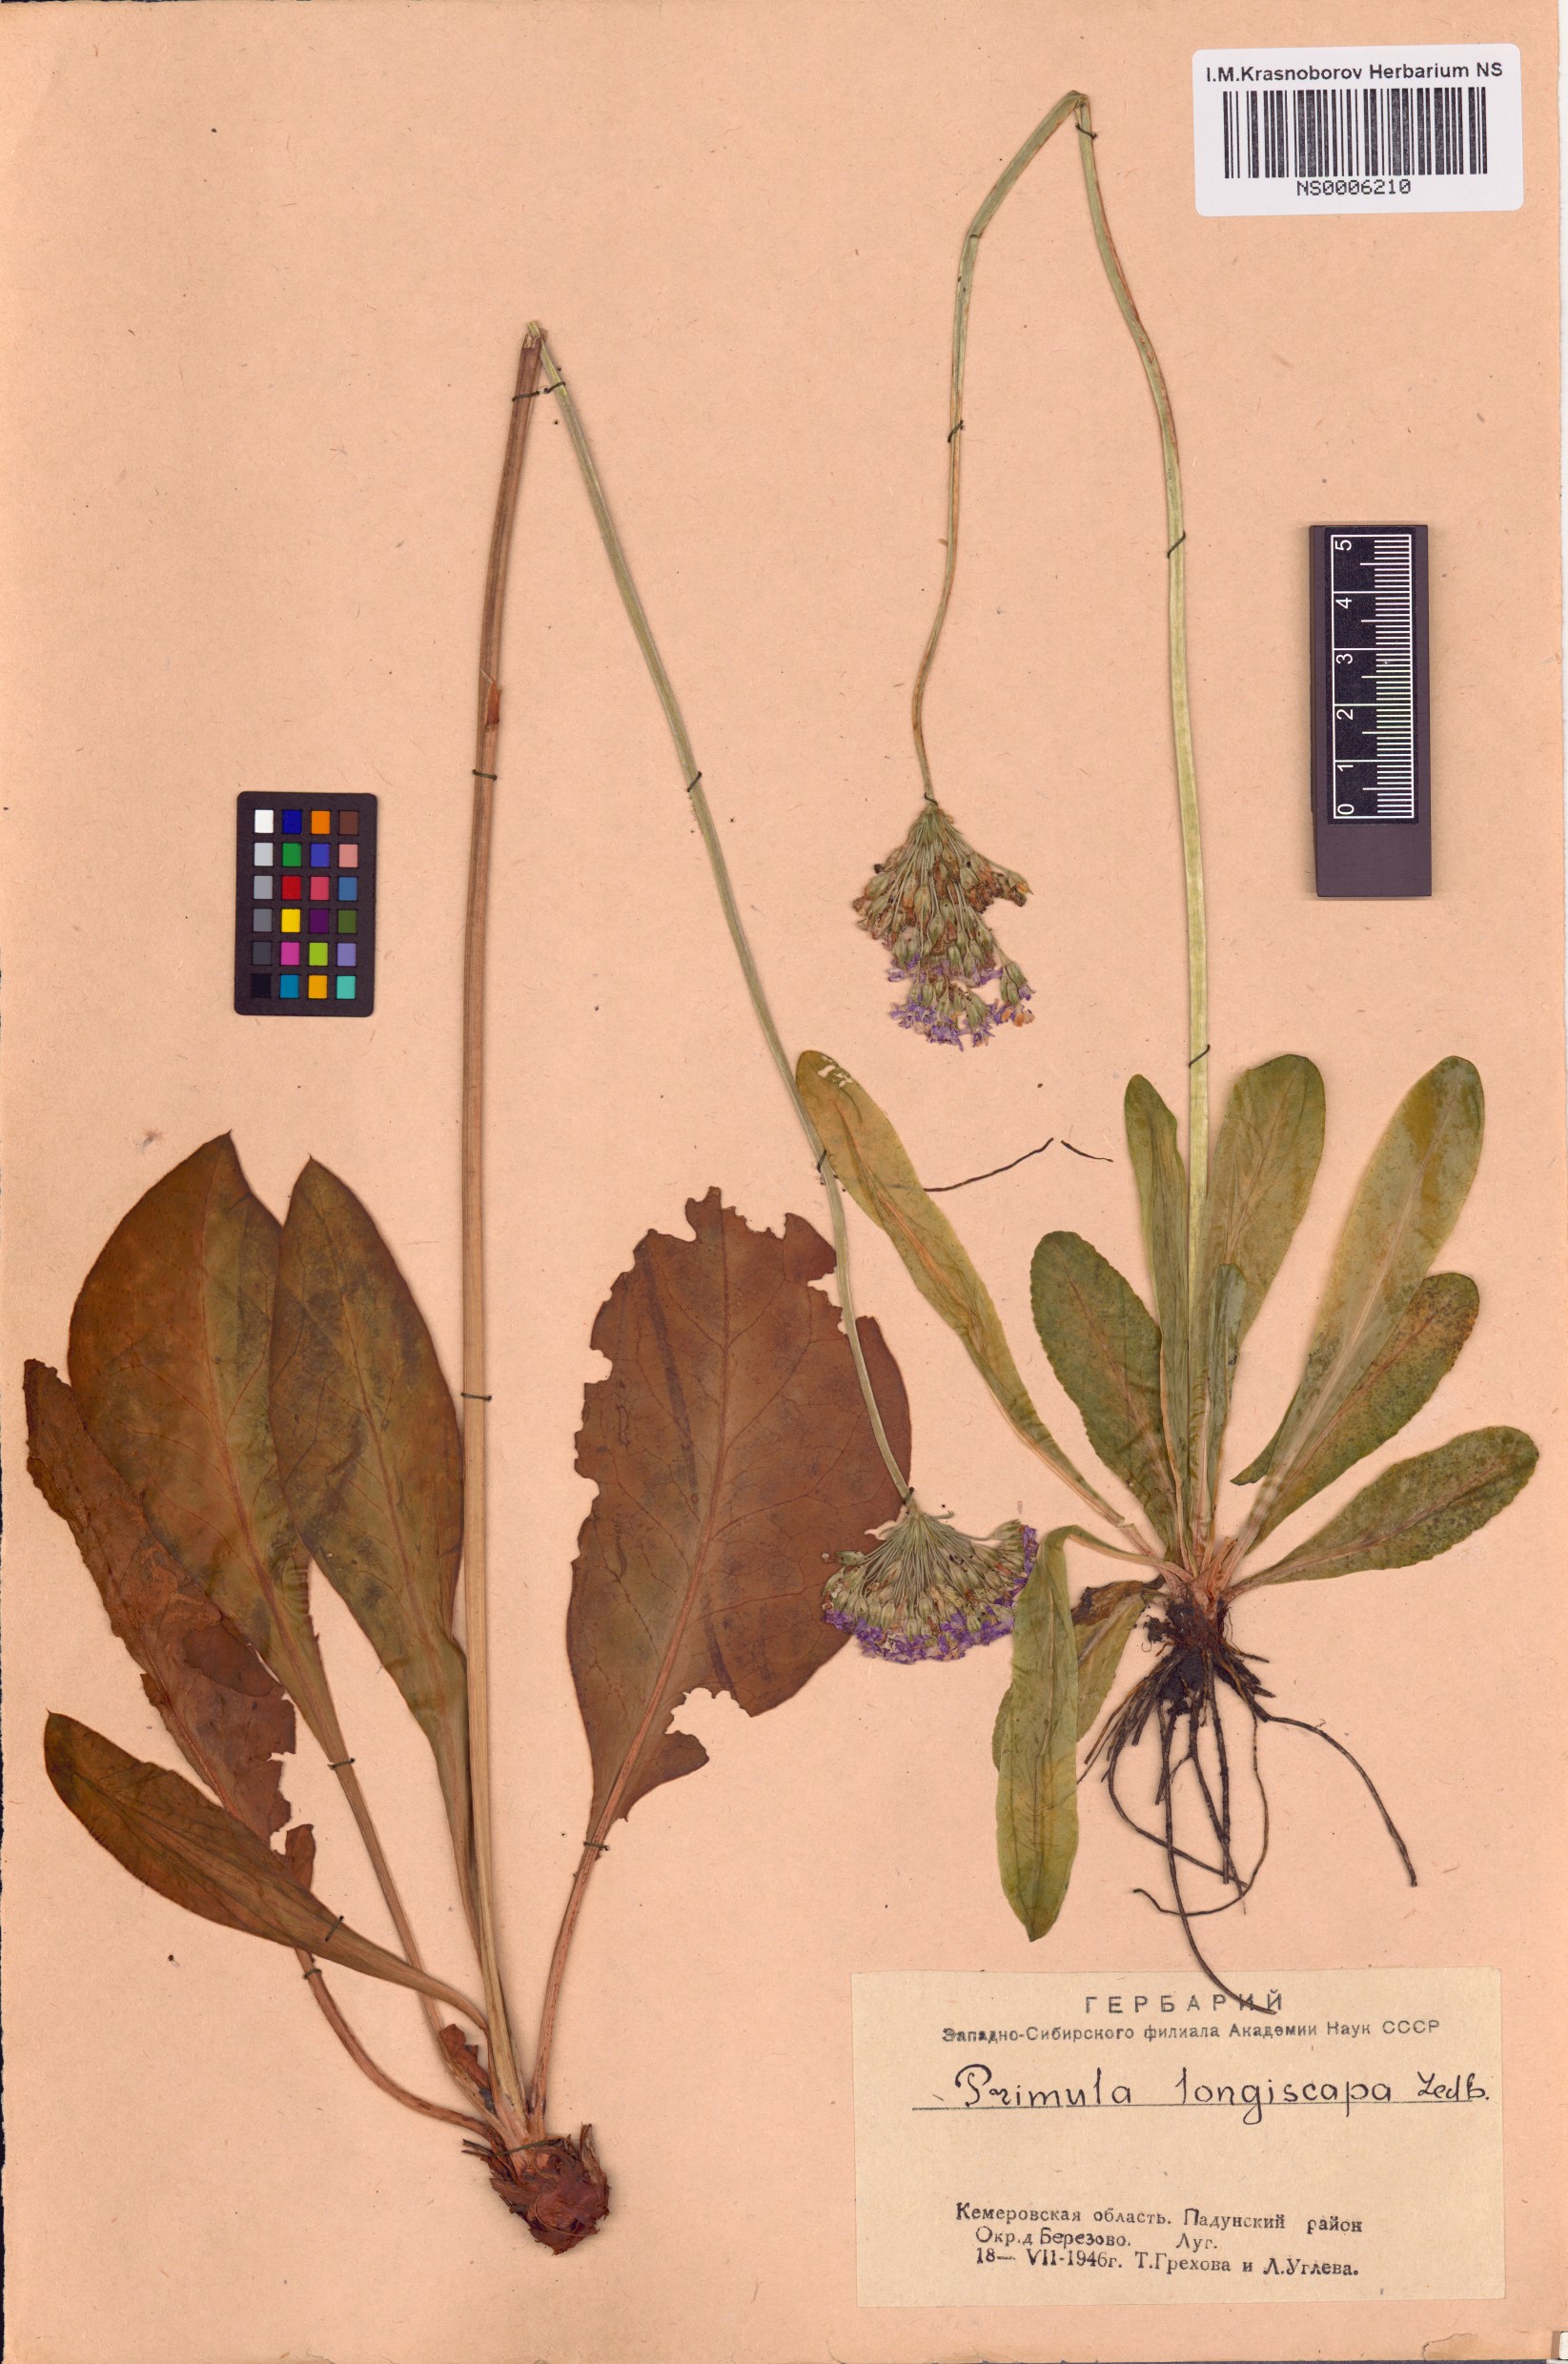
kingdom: Plantae
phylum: Tracheophyta
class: Magnoliopsida
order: Ericales
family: Primulaceae
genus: Primula
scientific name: Primula longiscapa
